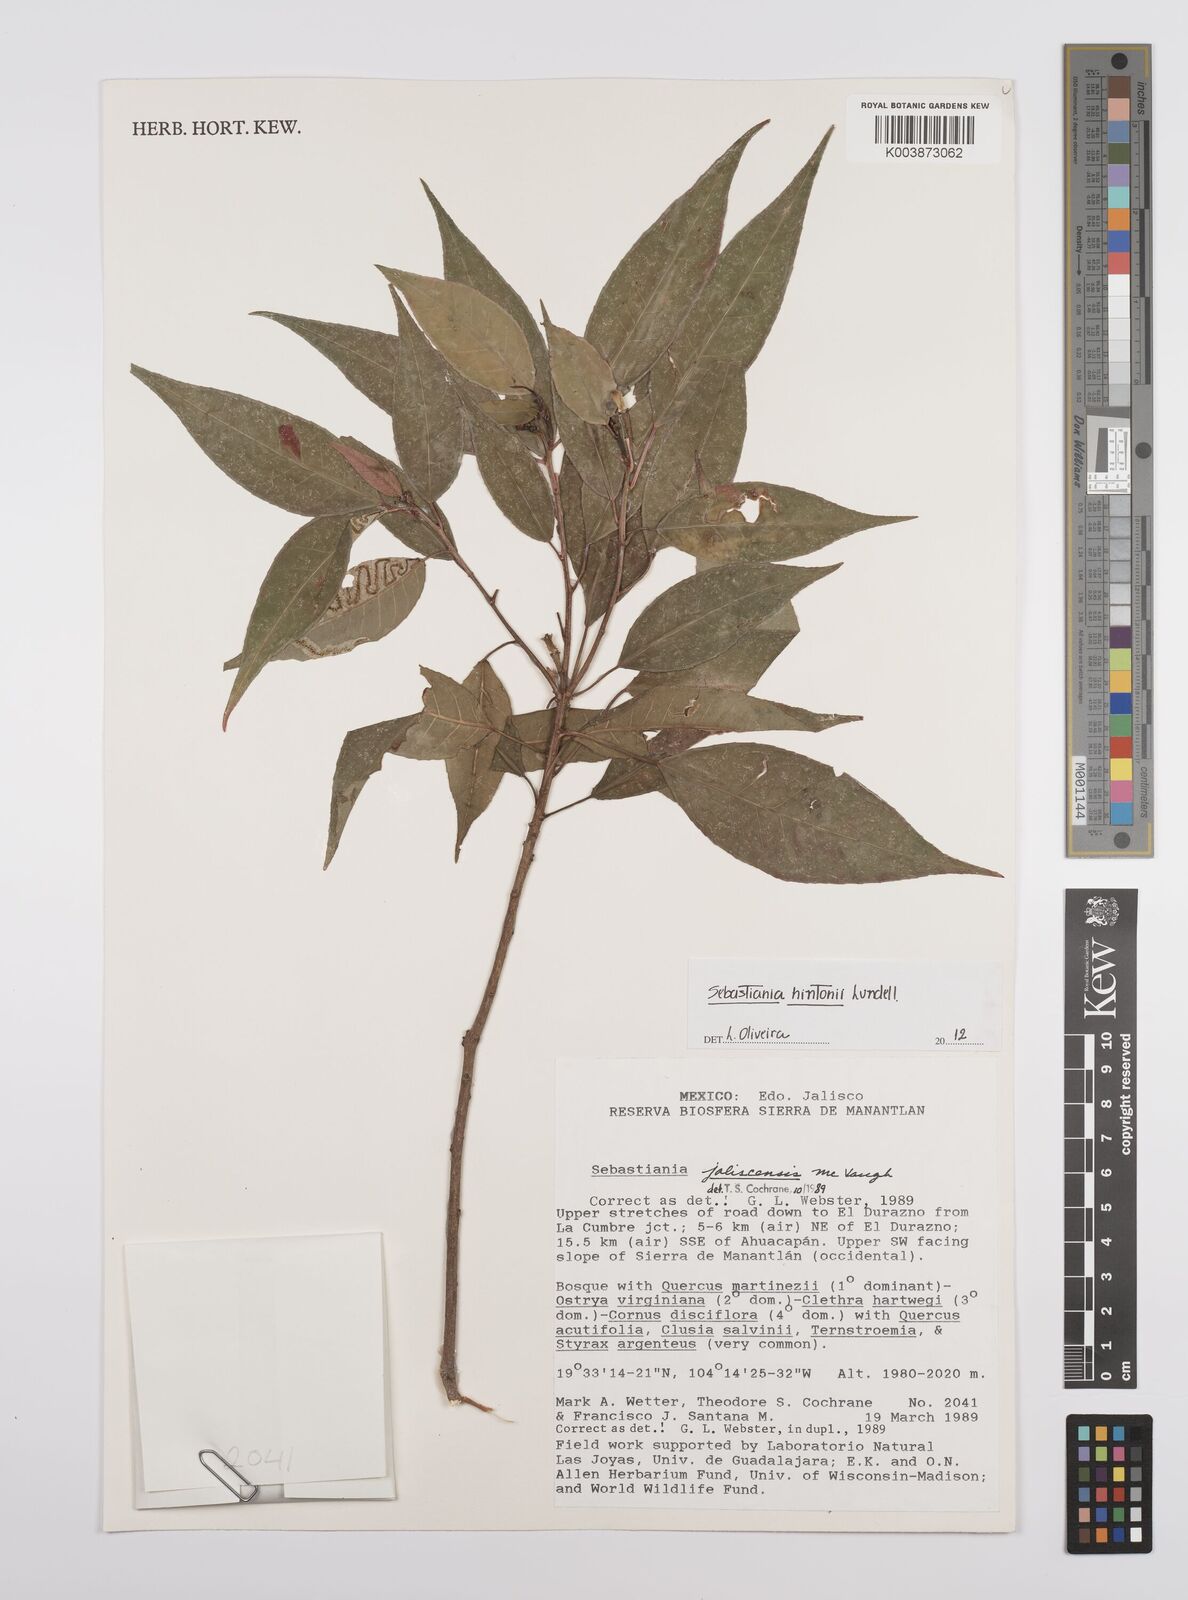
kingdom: Plantae
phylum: Tracheophyta
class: Magnoliopsida
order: Malpighiales
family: Euphorbiaceae
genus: Sebastiania
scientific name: Sebastiania hintonii
